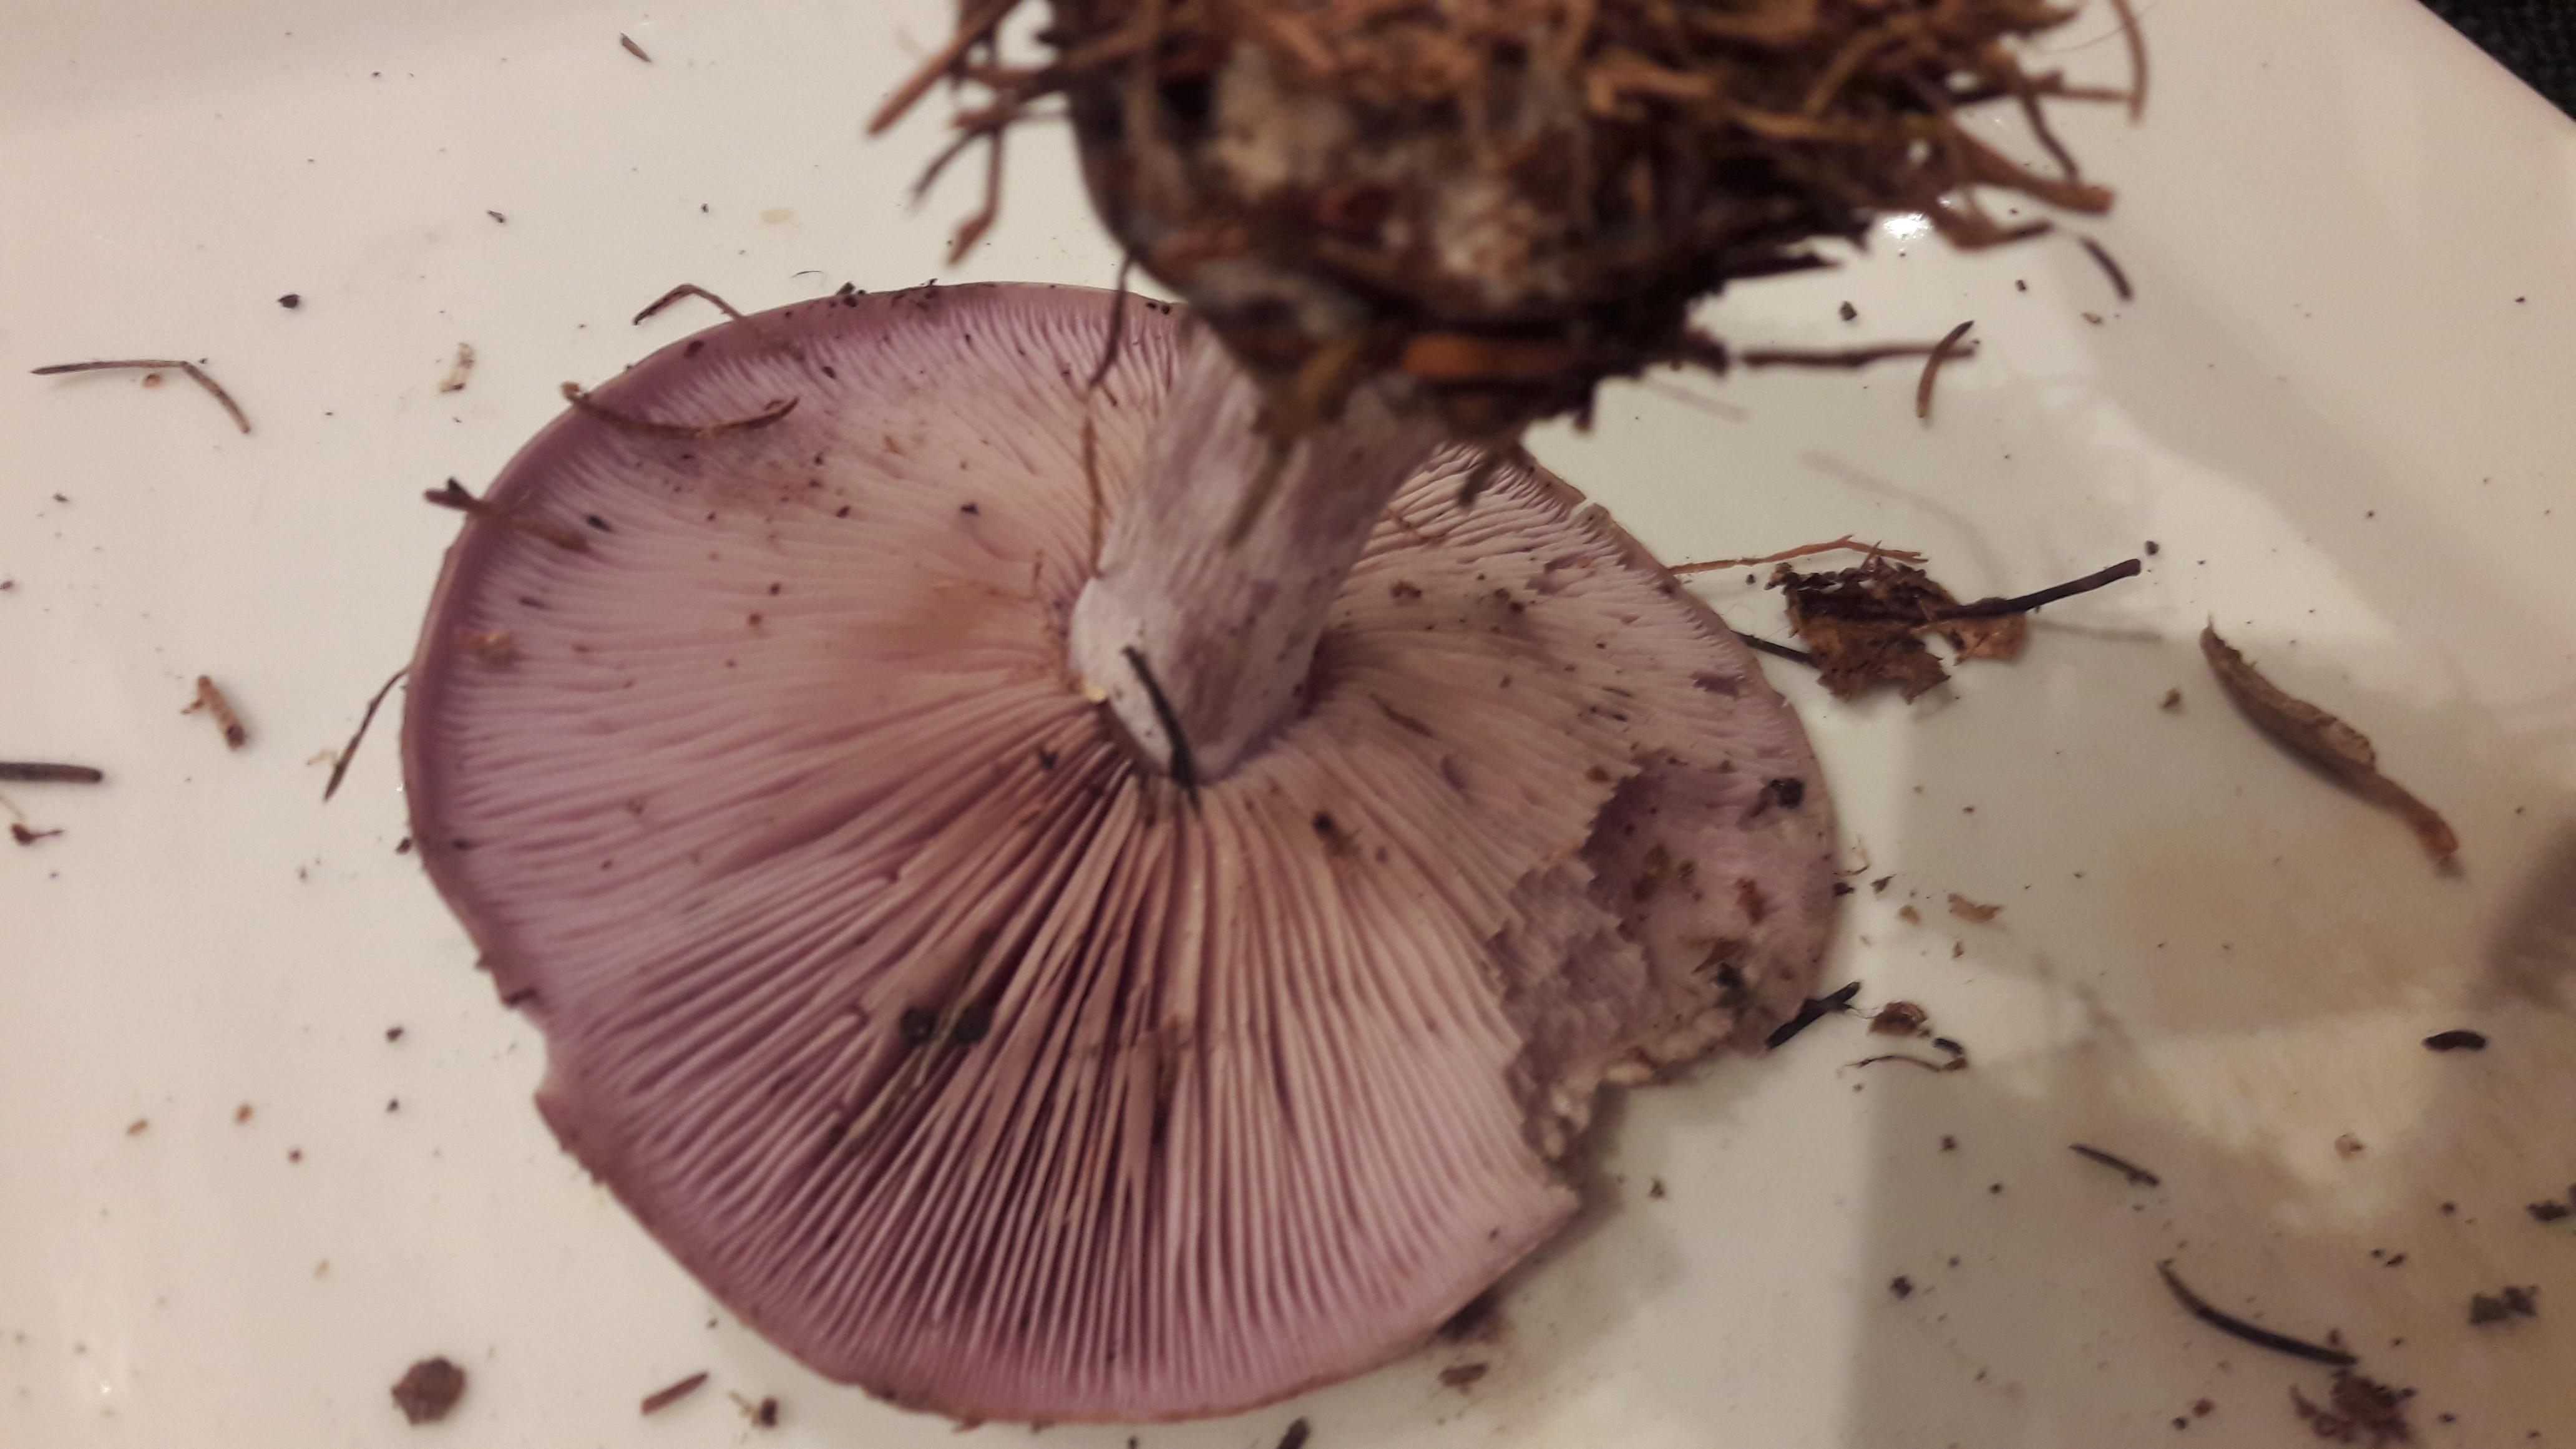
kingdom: Fungi
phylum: Basidiomycota
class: Agaricomycetes
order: Agaricales
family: Tricholomataceae
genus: Lepista
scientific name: Lepista nuda
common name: violet hekseringshat
